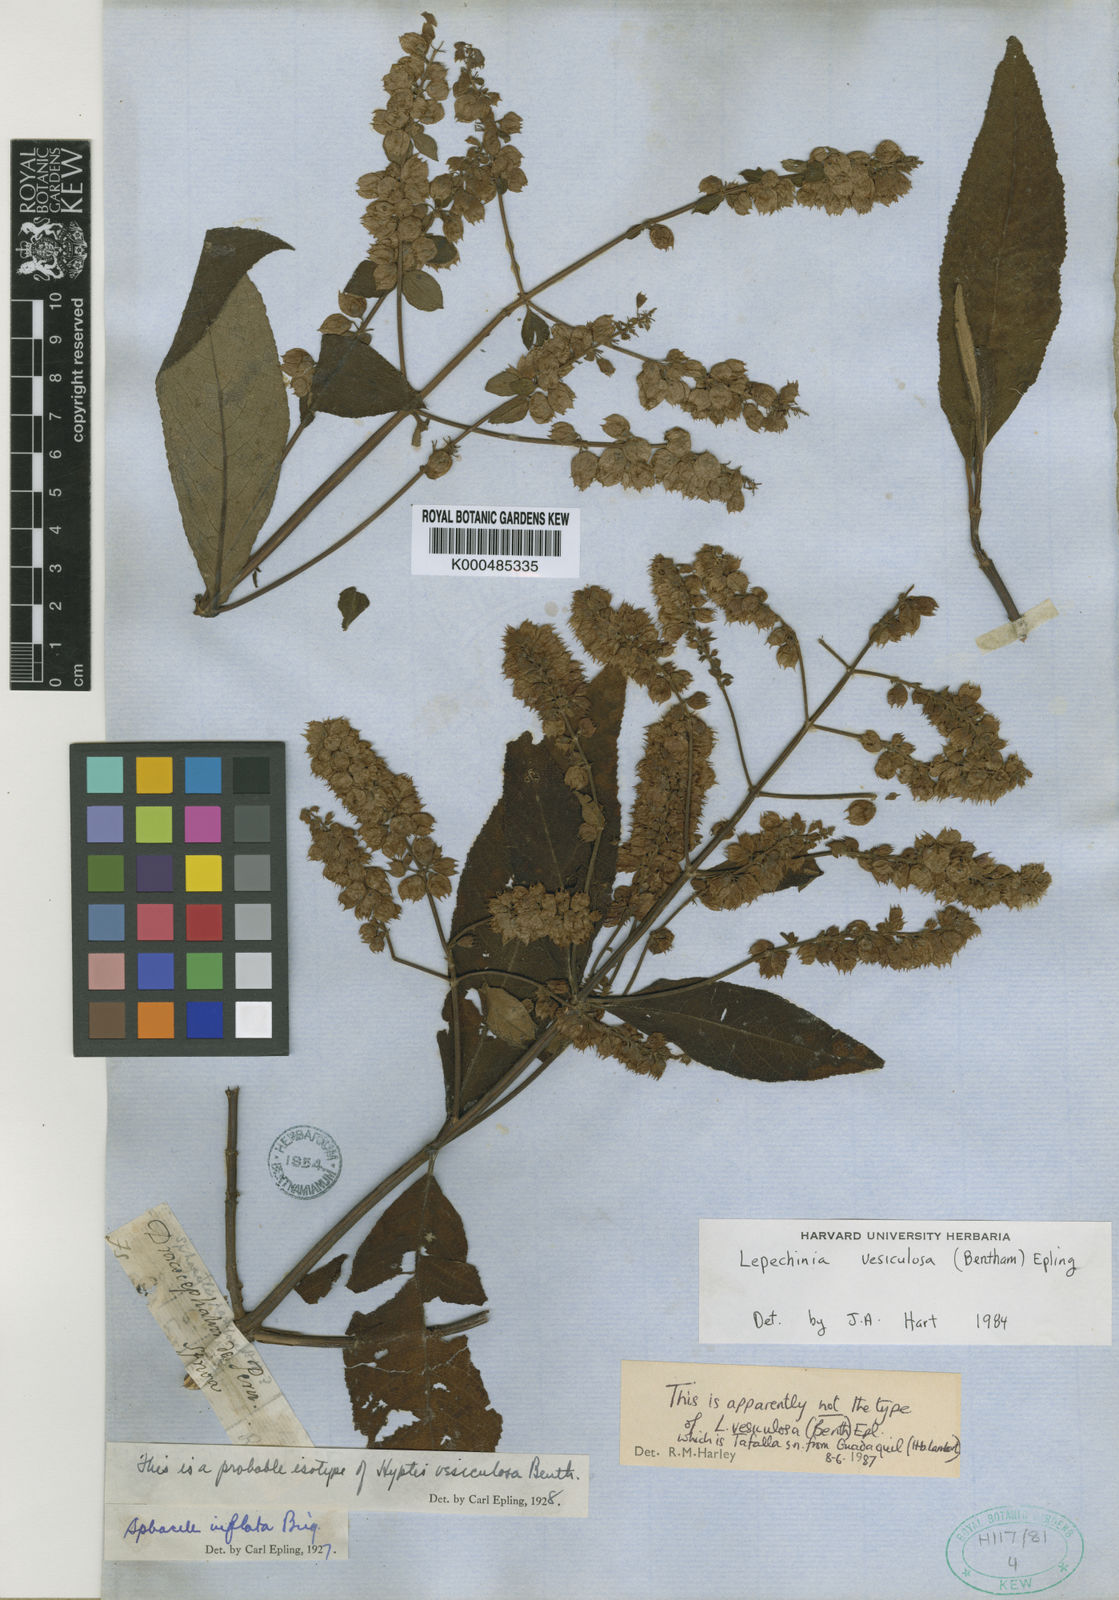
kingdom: Plantae
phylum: Tracheophyta
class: Magnoliopsida
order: Lamiales
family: Lamiaceae
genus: Lepechinia
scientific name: Lepechinia vesiculosa
